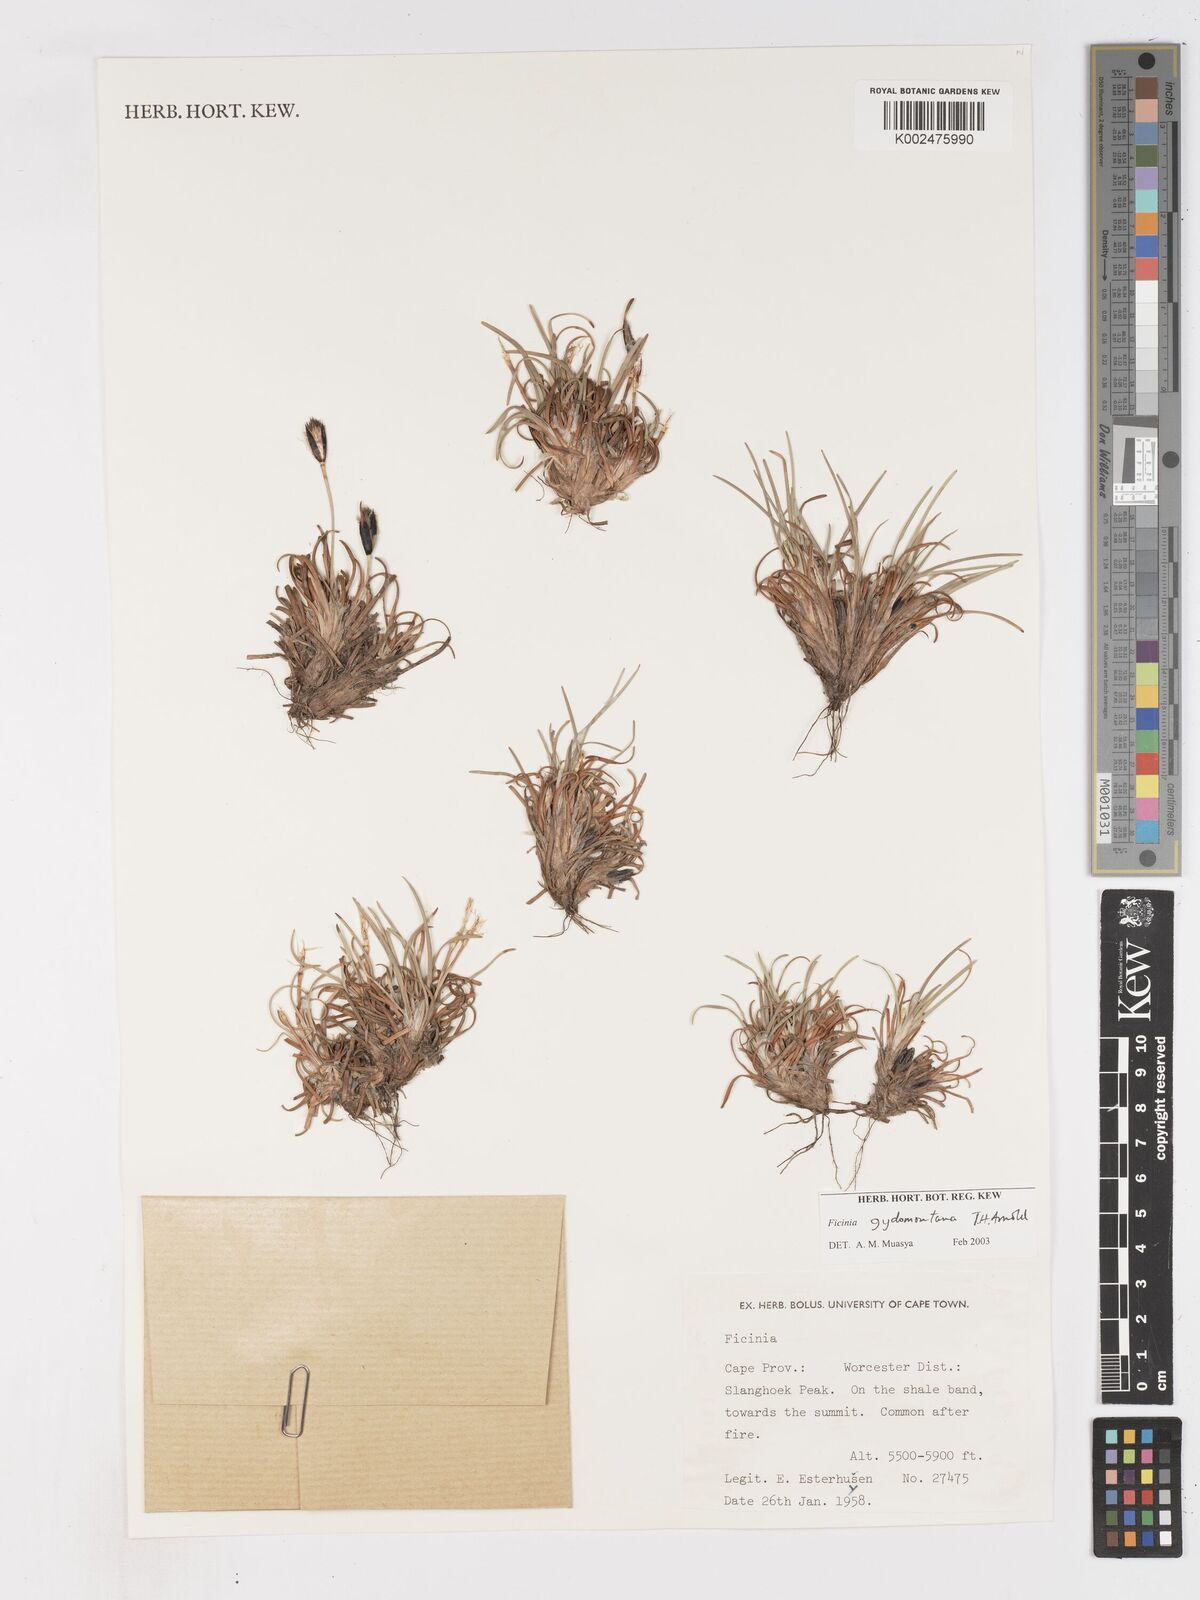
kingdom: Plantae
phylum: Tracheophyta
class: Liliopsida
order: Poales
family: Cyperaceae
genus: Ficinia
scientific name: Ficinia gydomontana
